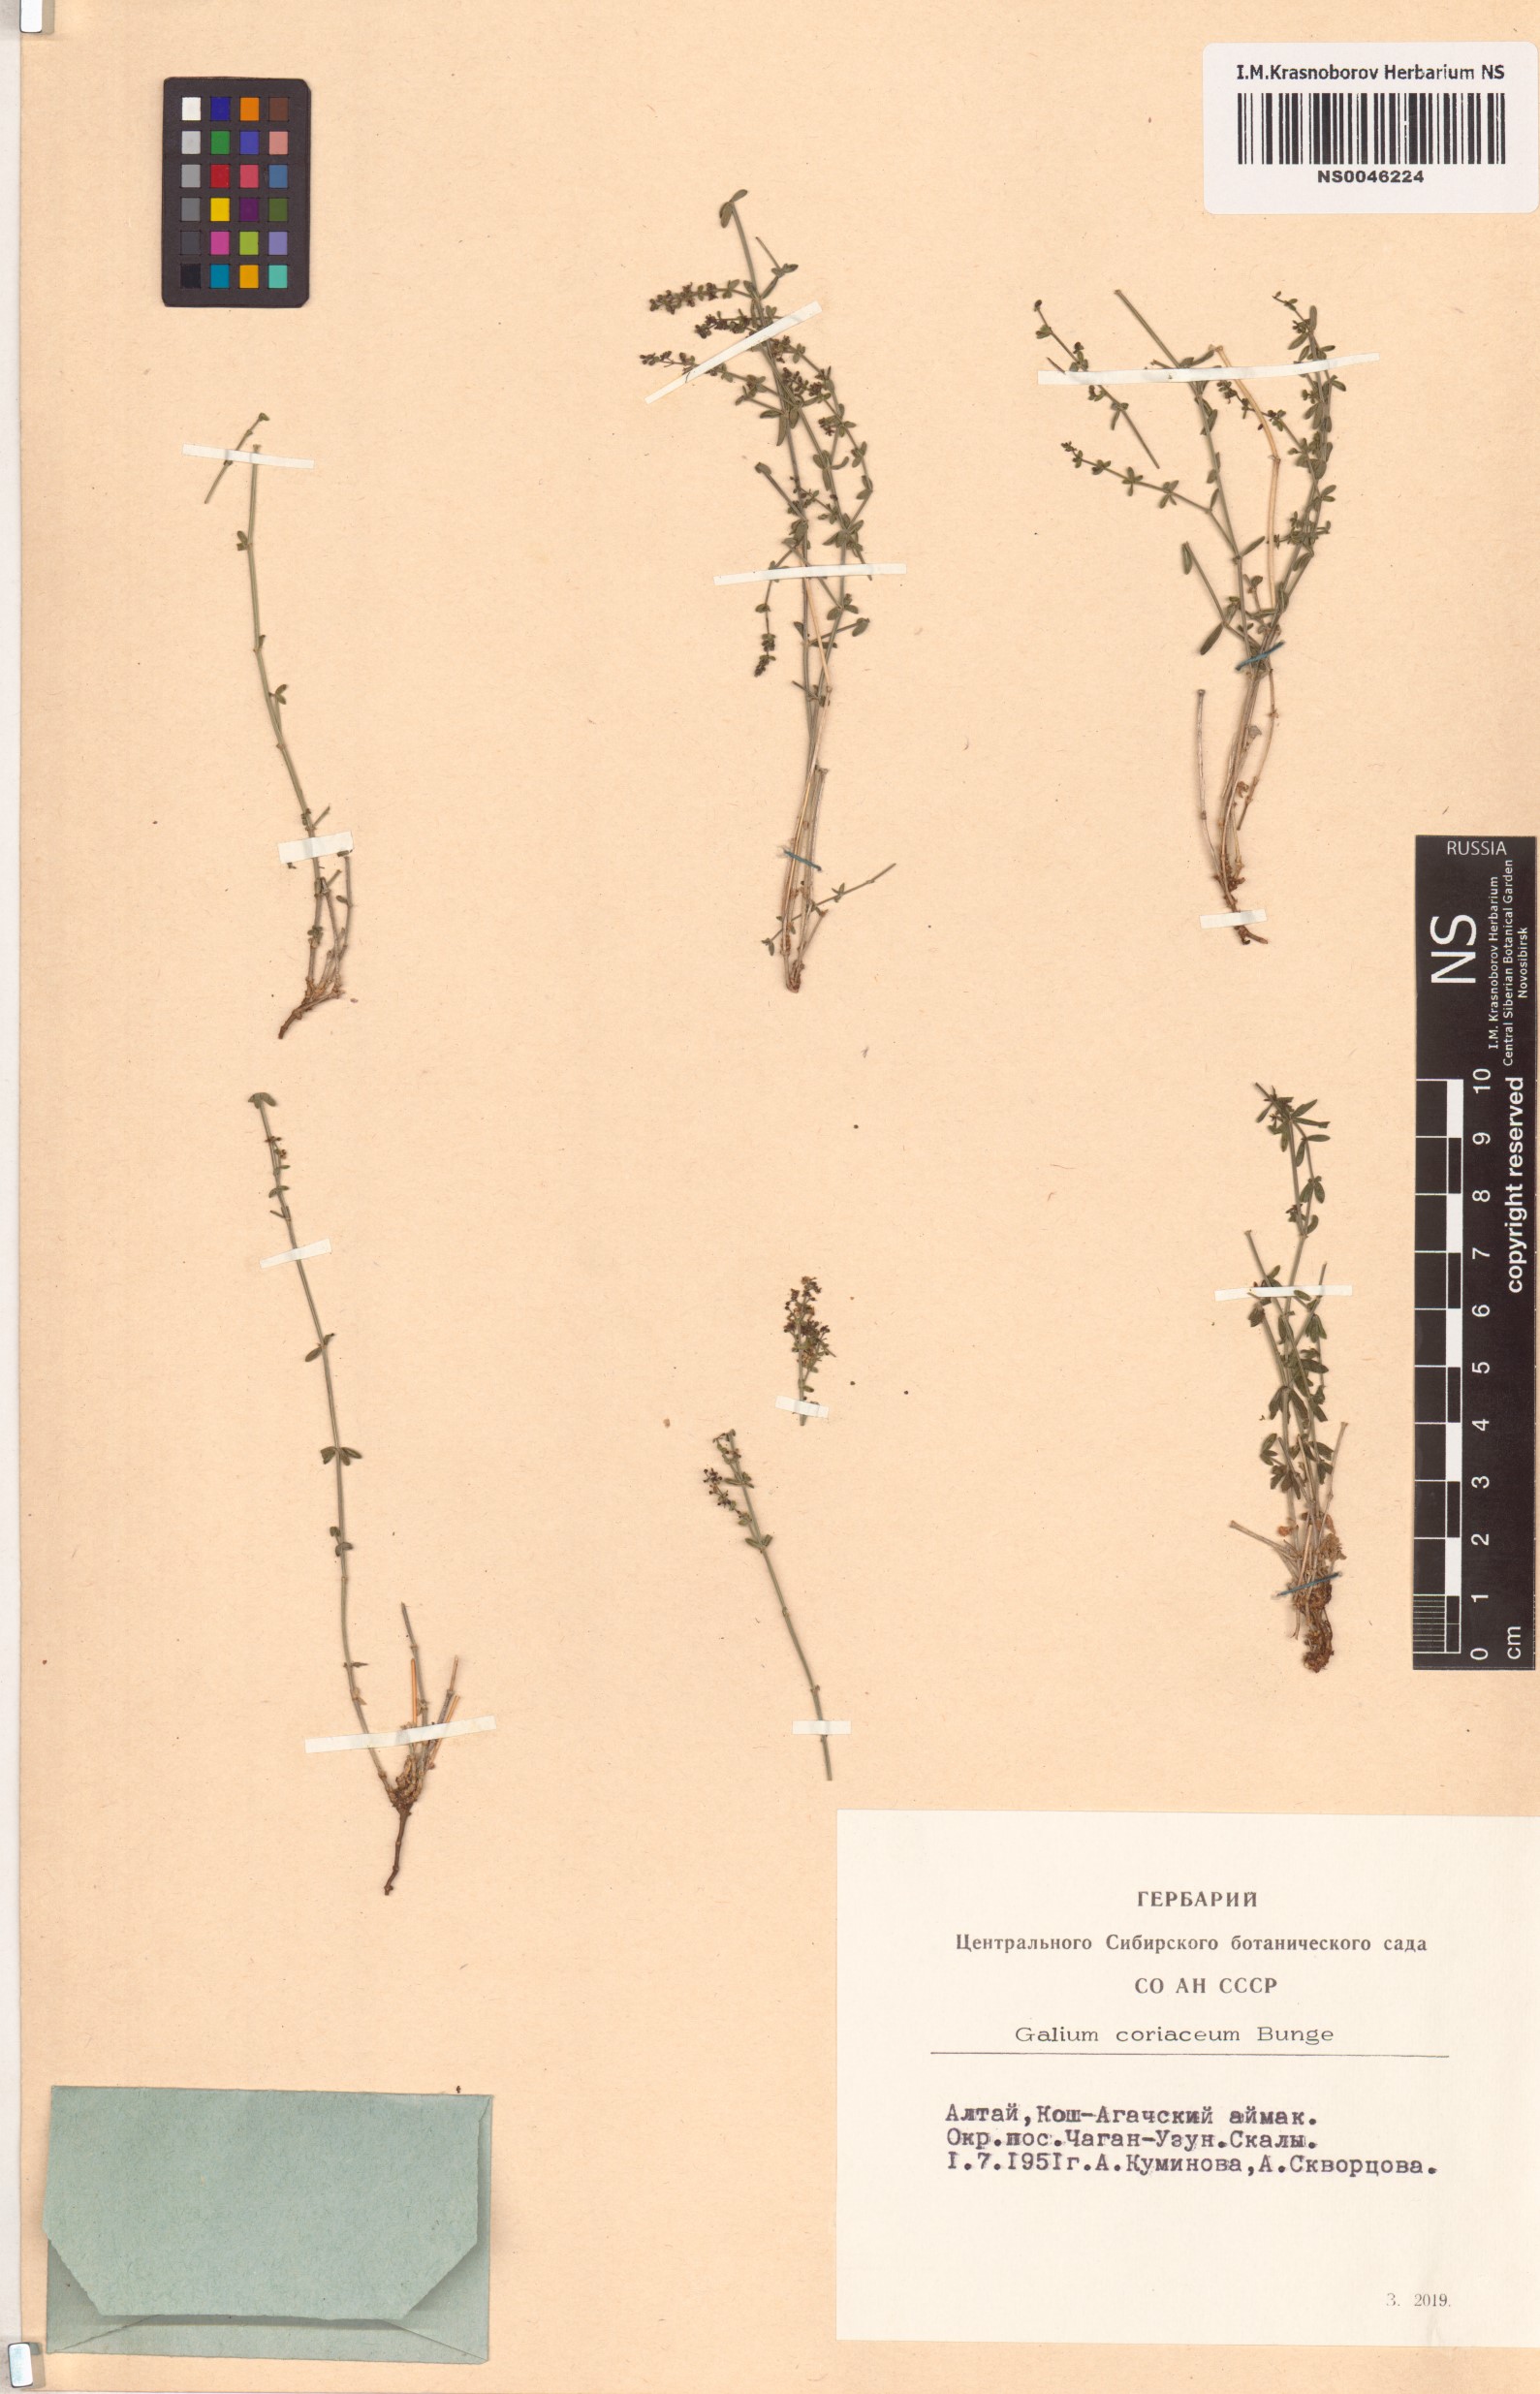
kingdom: Plantae
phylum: Tracheophyta
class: Magnoliopsida
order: Gentianales
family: Rubiaceae
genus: Galium
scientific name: Galium coriaceum
